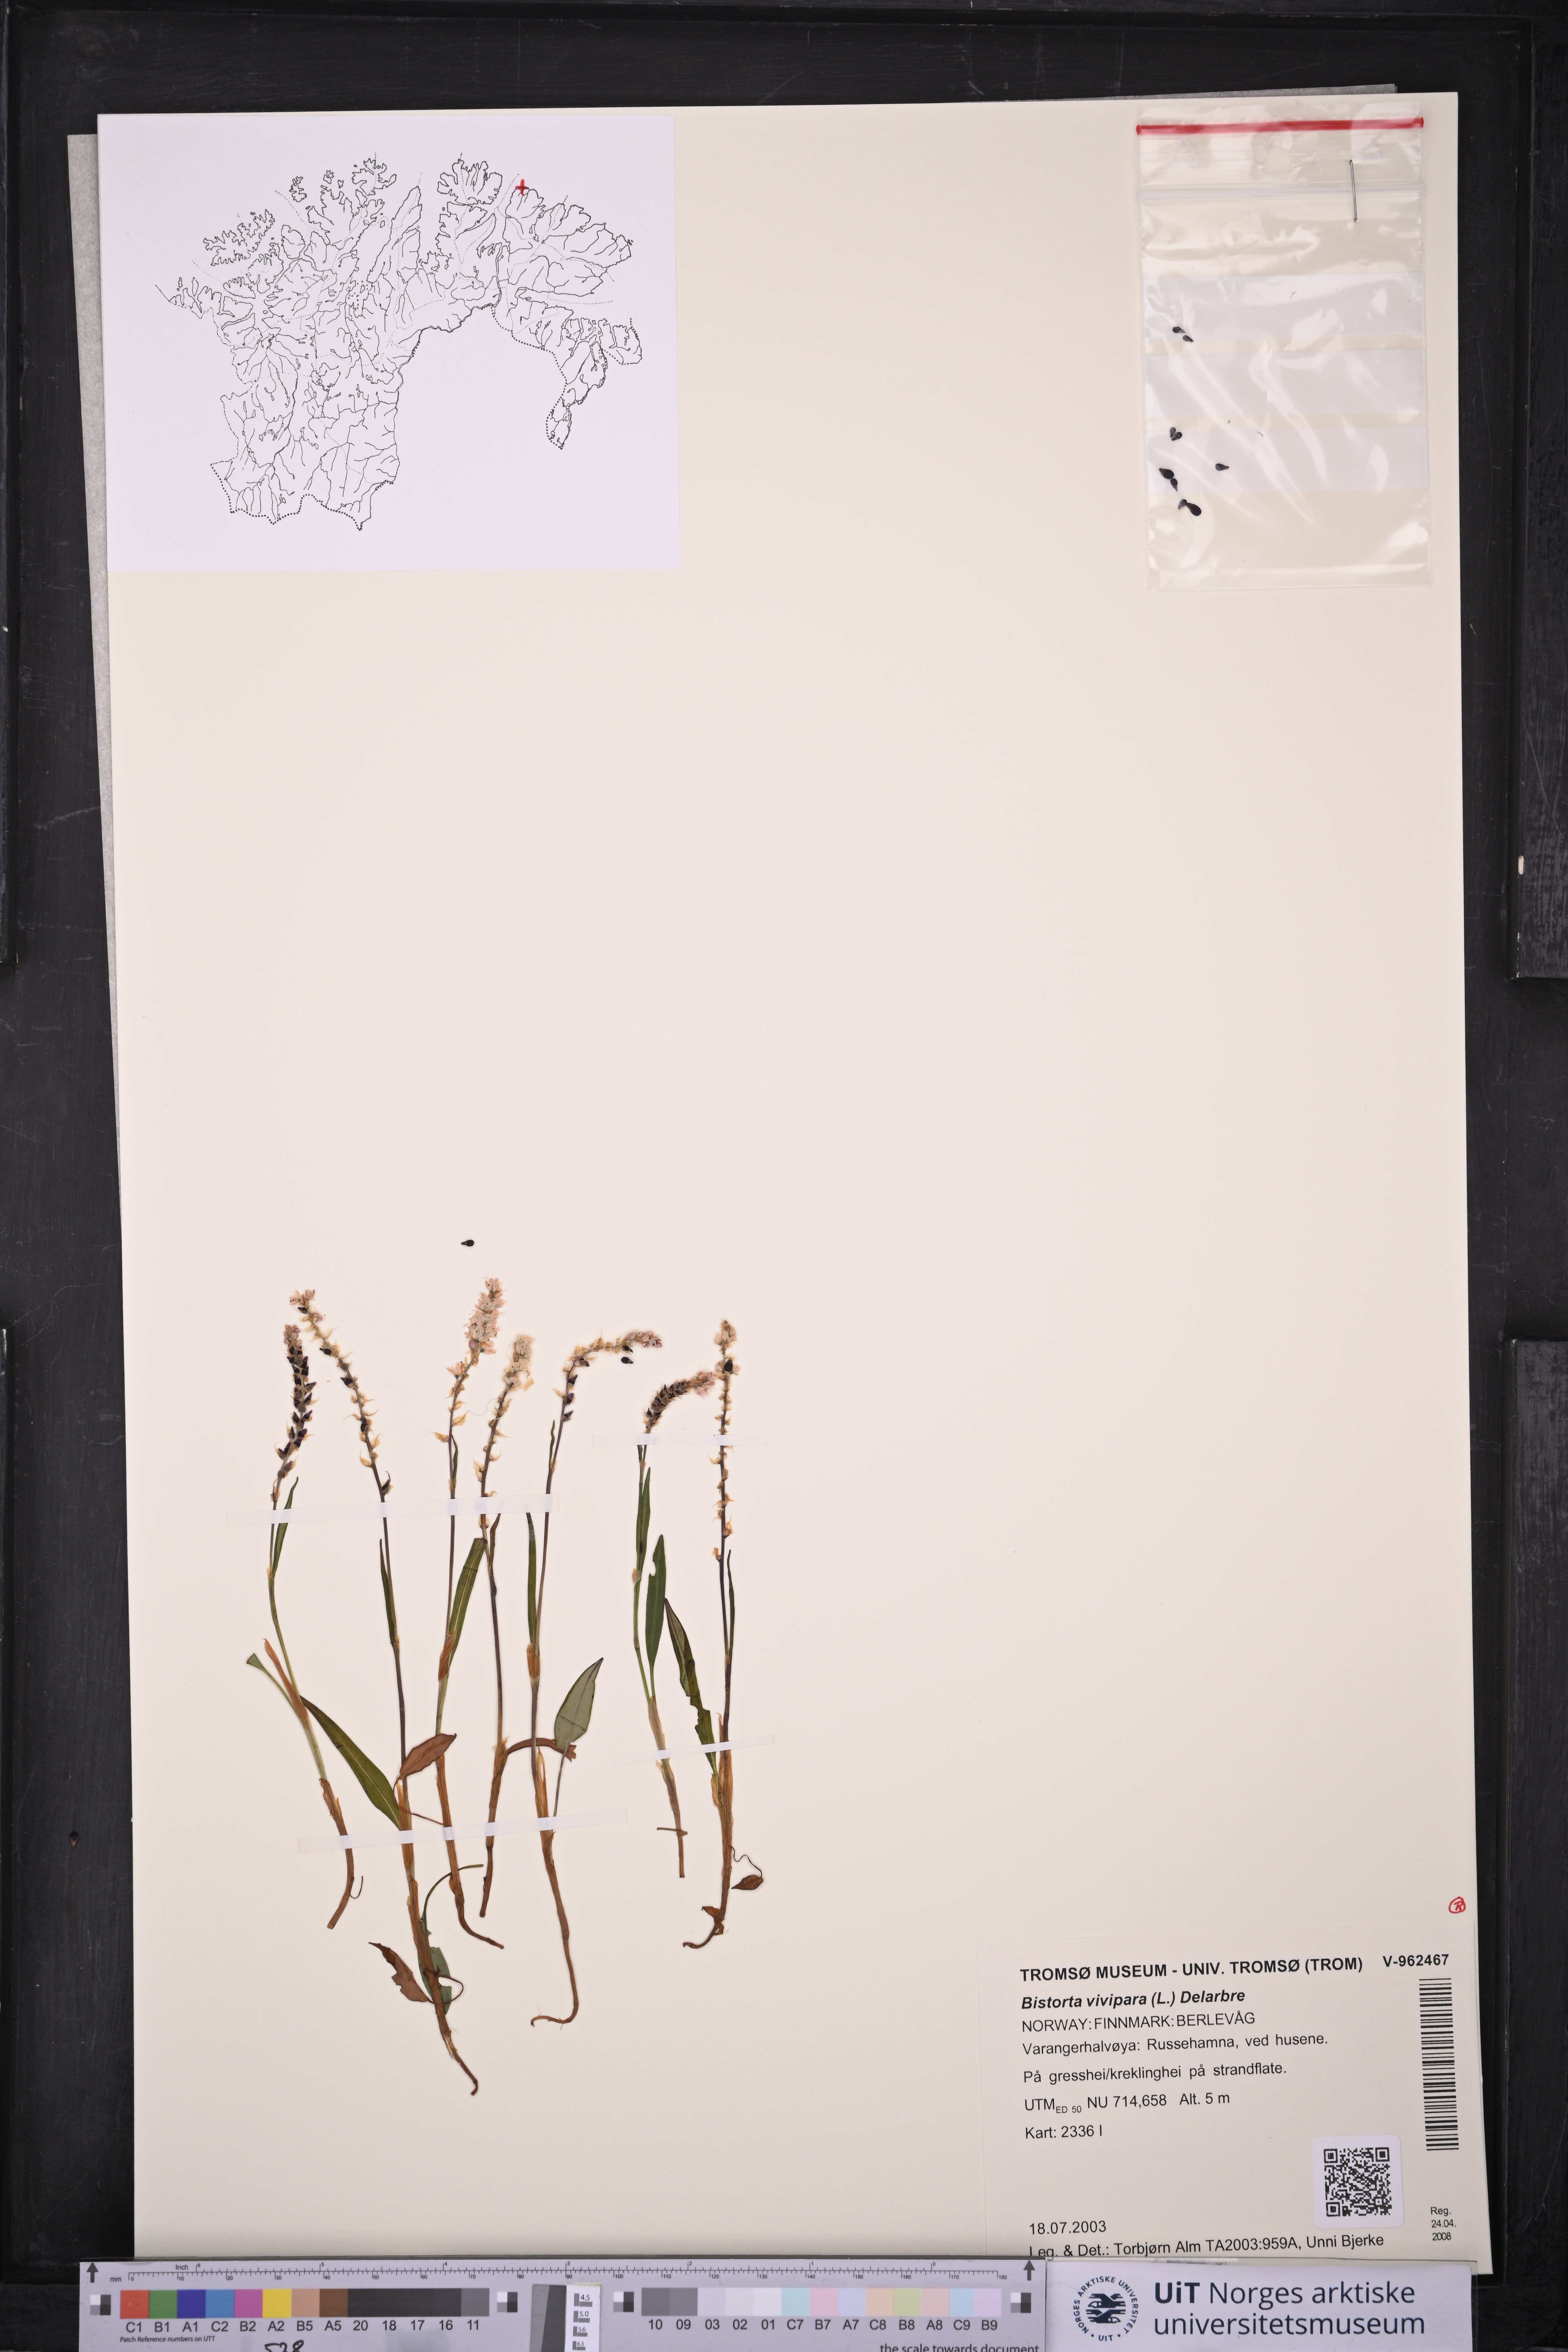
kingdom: Plantae
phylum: Tracheophyta
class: Magnoliopsida
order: Caryophyllales
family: Polygonaceae
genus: Bistorta
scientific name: Bistorta vivipara
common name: Alpine bistort
